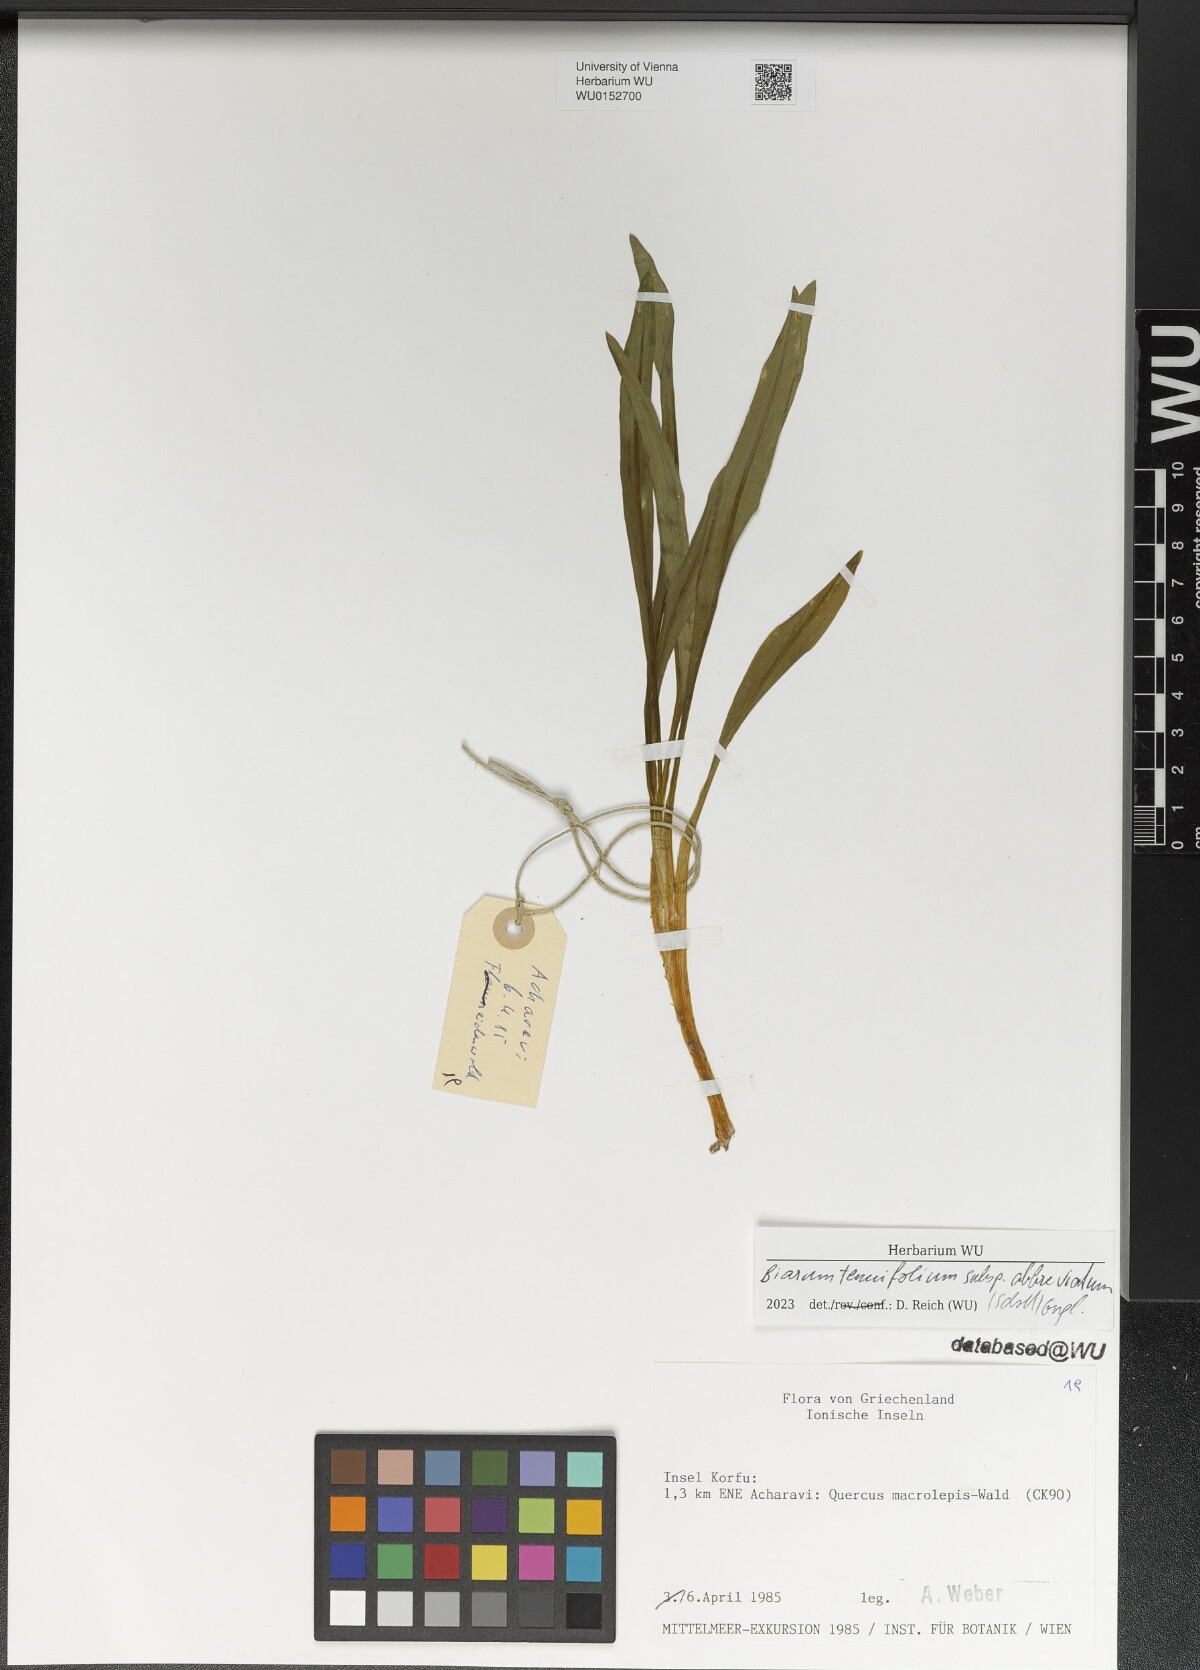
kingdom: Plantae
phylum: Tracheophyta
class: Liliopsida
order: Alismatales
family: Araceae
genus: Biarum
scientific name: Biarum tenuifolium
